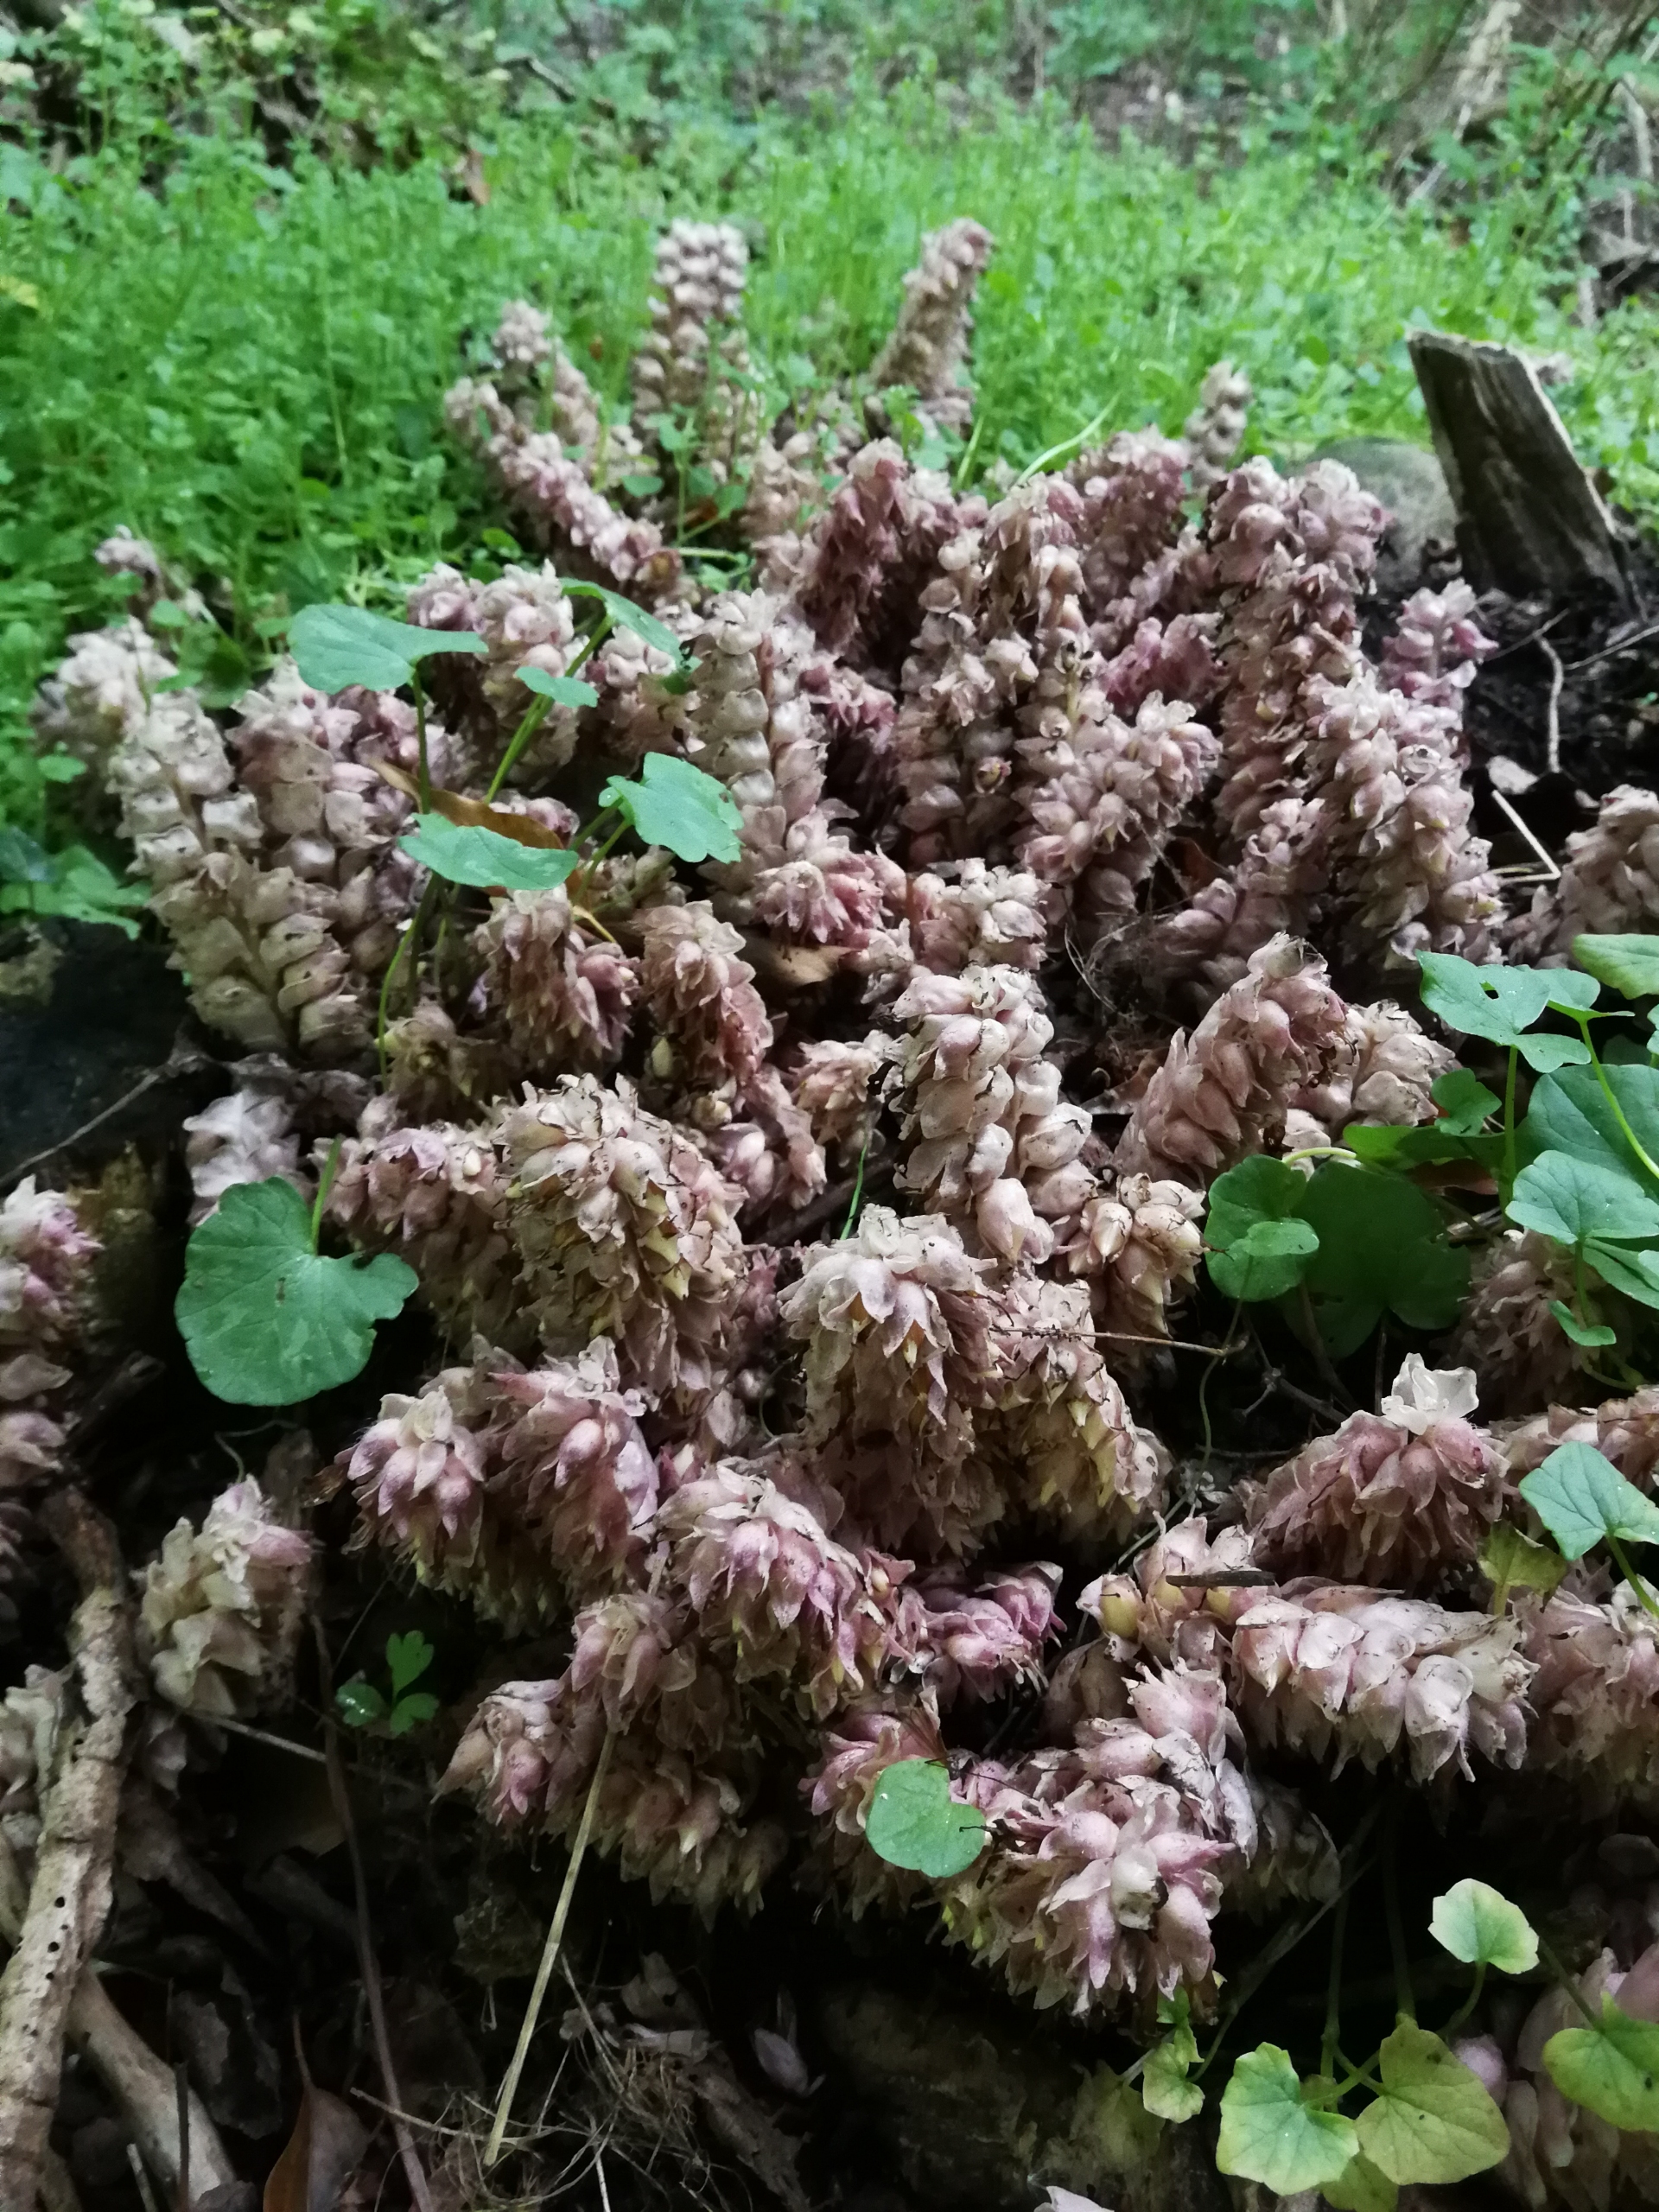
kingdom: Plantae
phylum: Tracheophyta
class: Magnoliopsida
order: Lamiales
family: Orobanchaceae
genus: Lathraea
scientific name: Lathraea squamaria
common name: Skælrod
